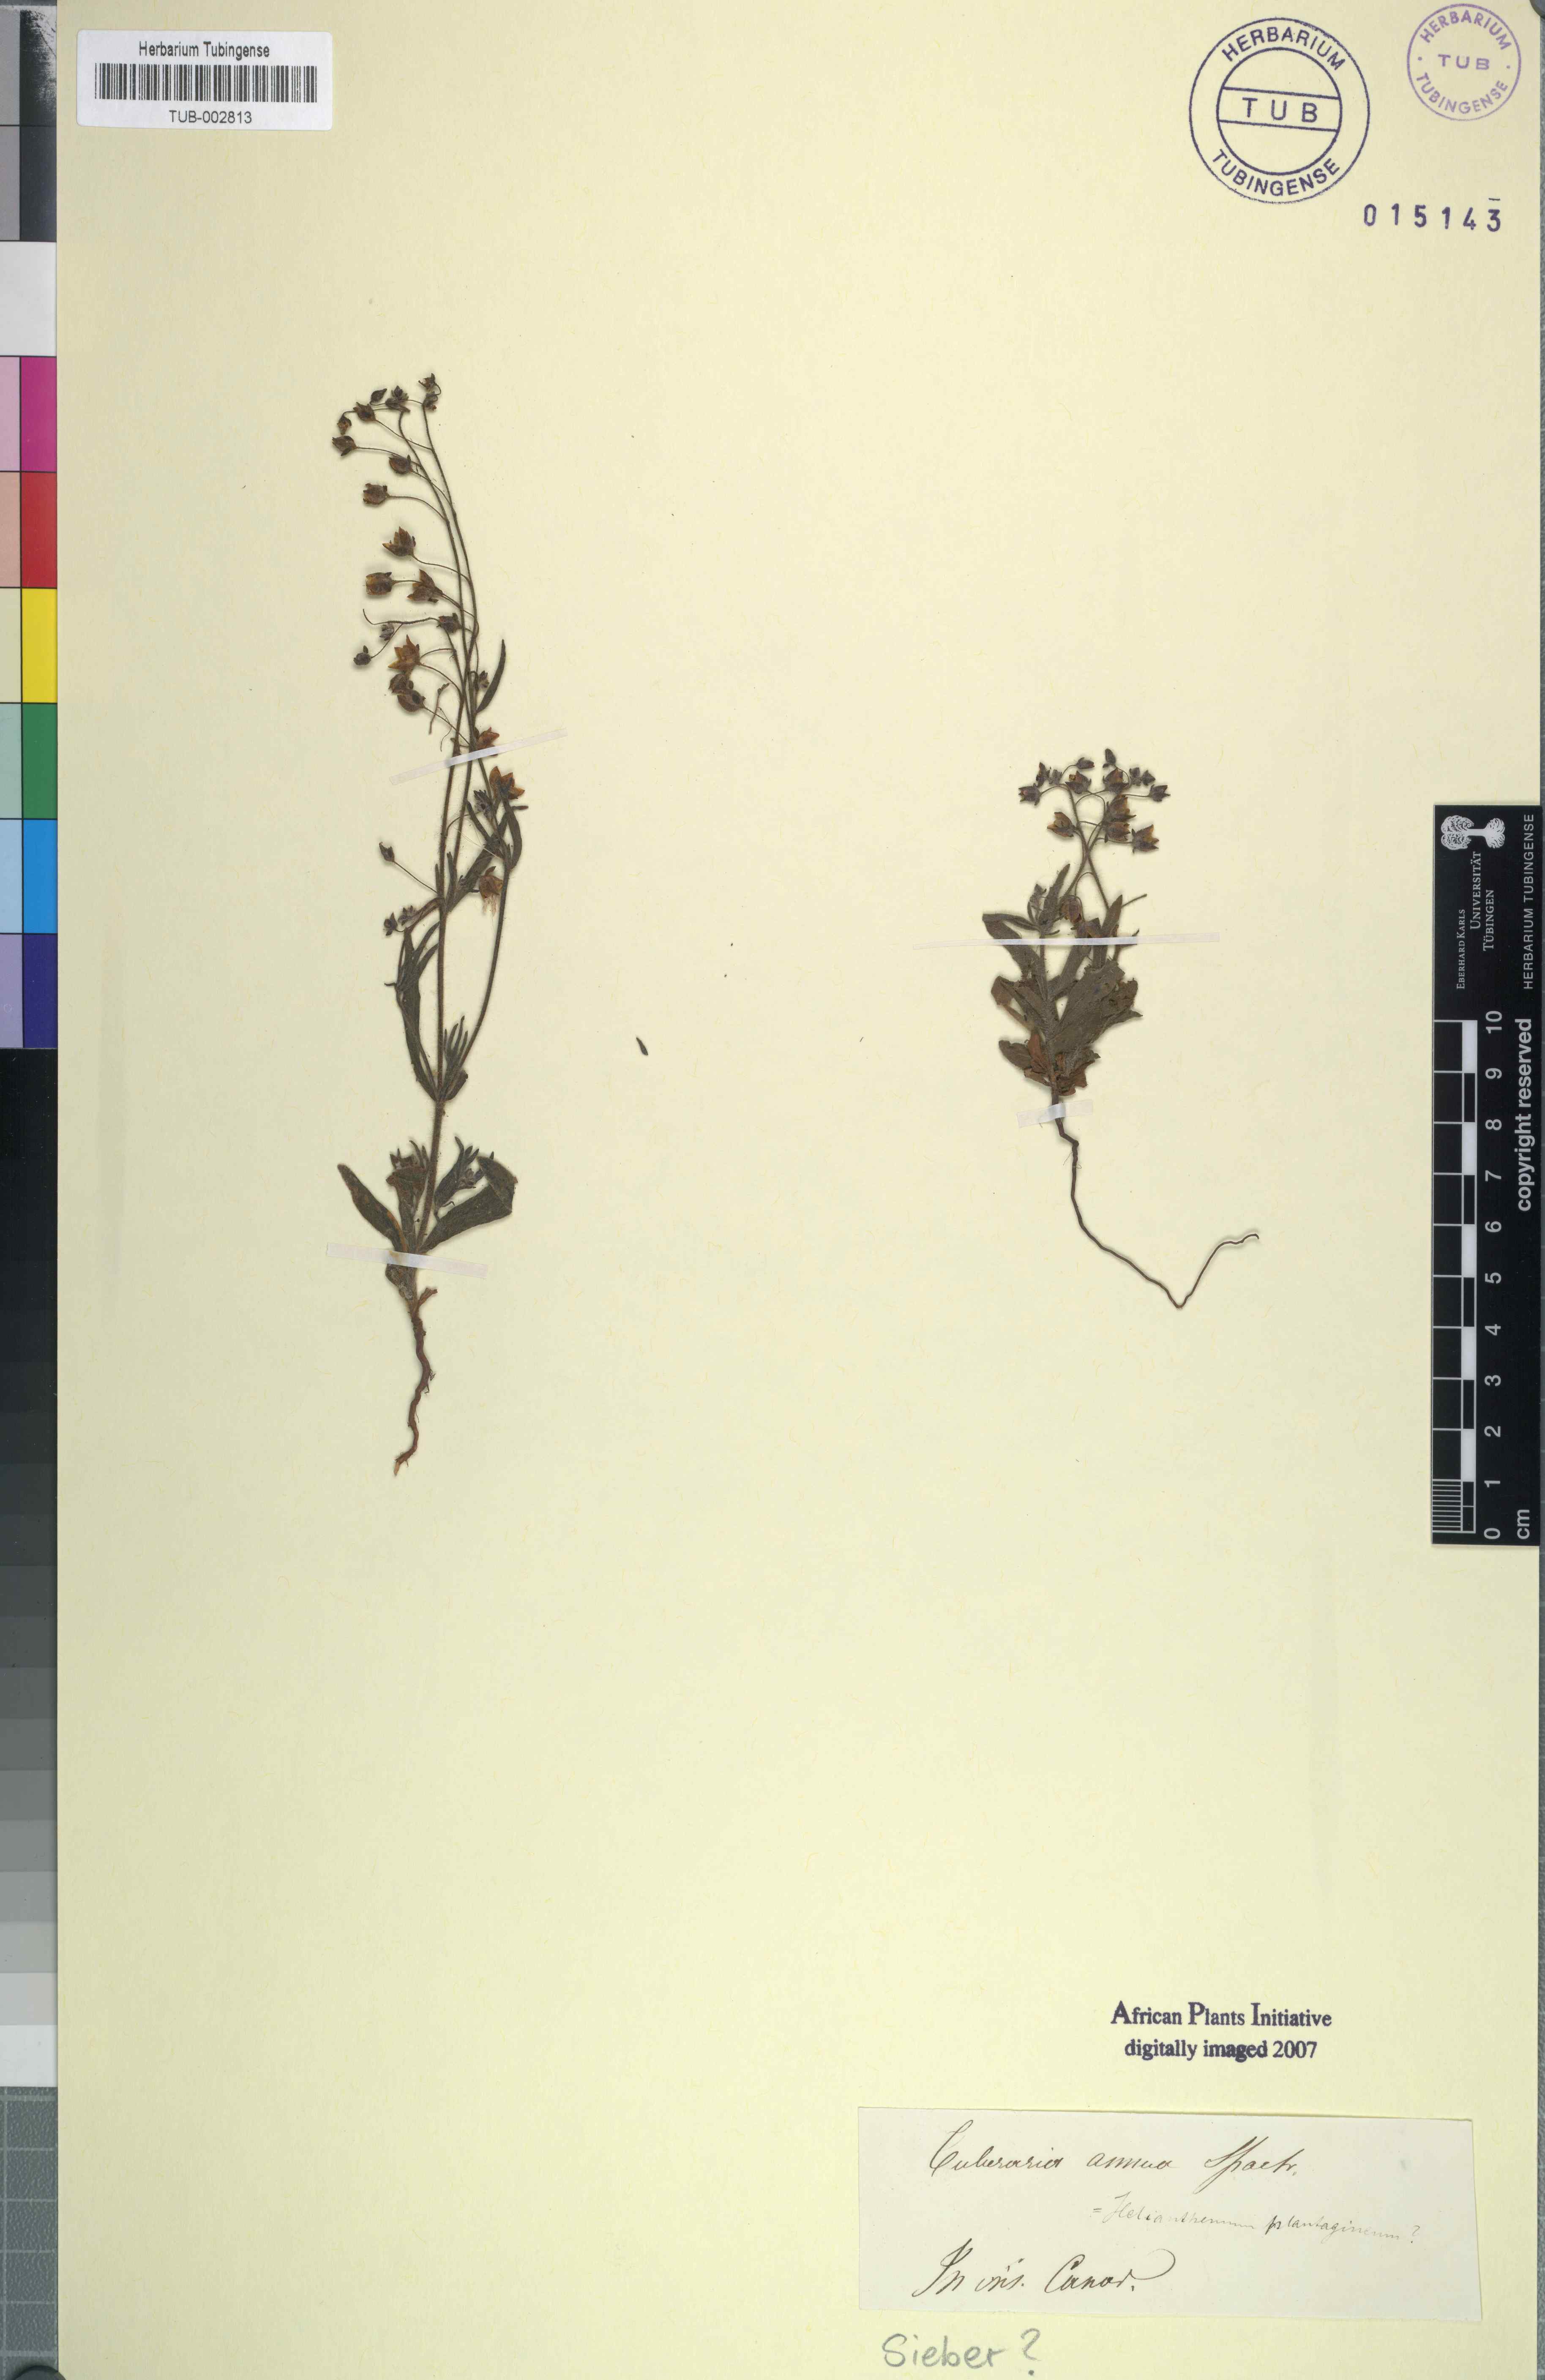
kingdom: Plantae
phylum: Tracheophyta
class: Magnoliopsida
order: Malvales
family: Cistaceae
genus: Tuberaria
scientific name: Tuberaria guttata
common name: Spotted rock-rose
